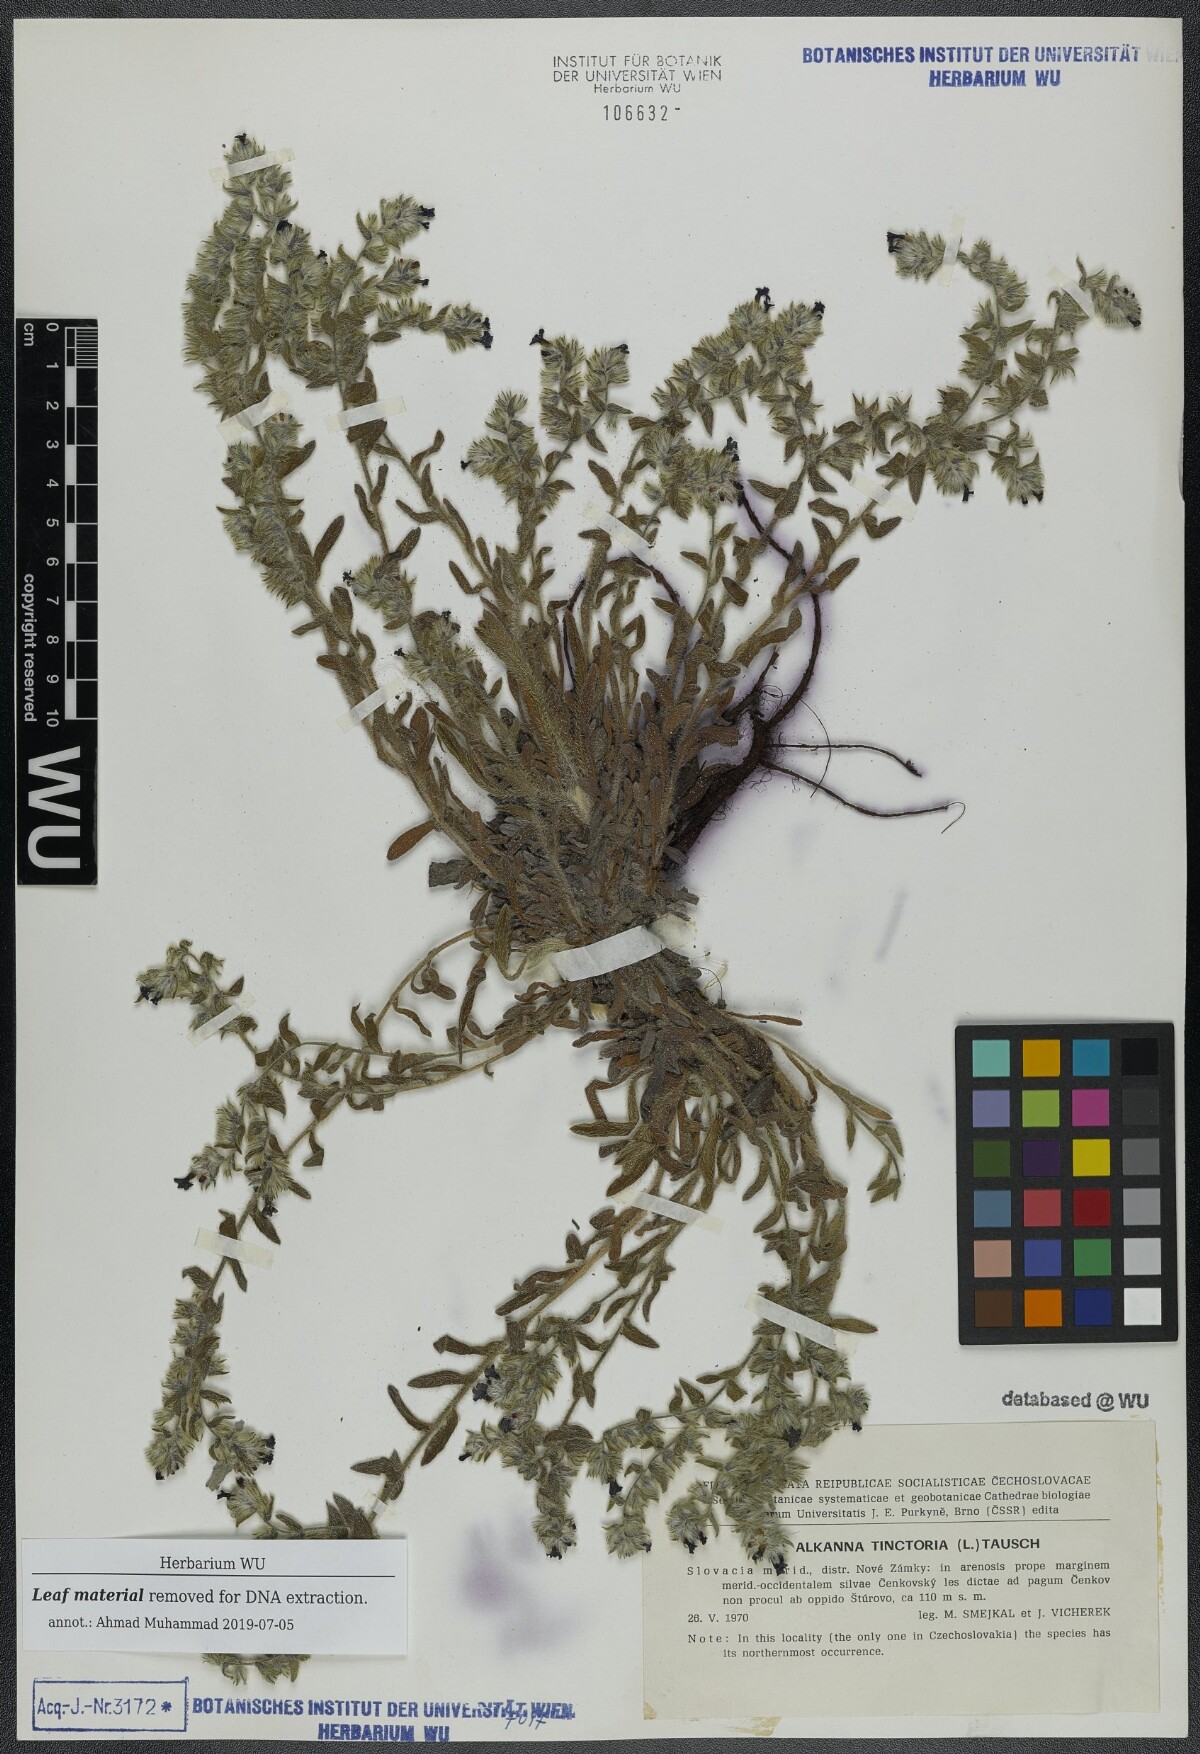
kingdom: Plantae
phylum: Tracheophyta
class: Magnoliopsida
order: Boraginales
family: Boraginaceae
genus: Alkanna
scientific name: Alkanna tinctoria
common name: Dyer's-alkanet
